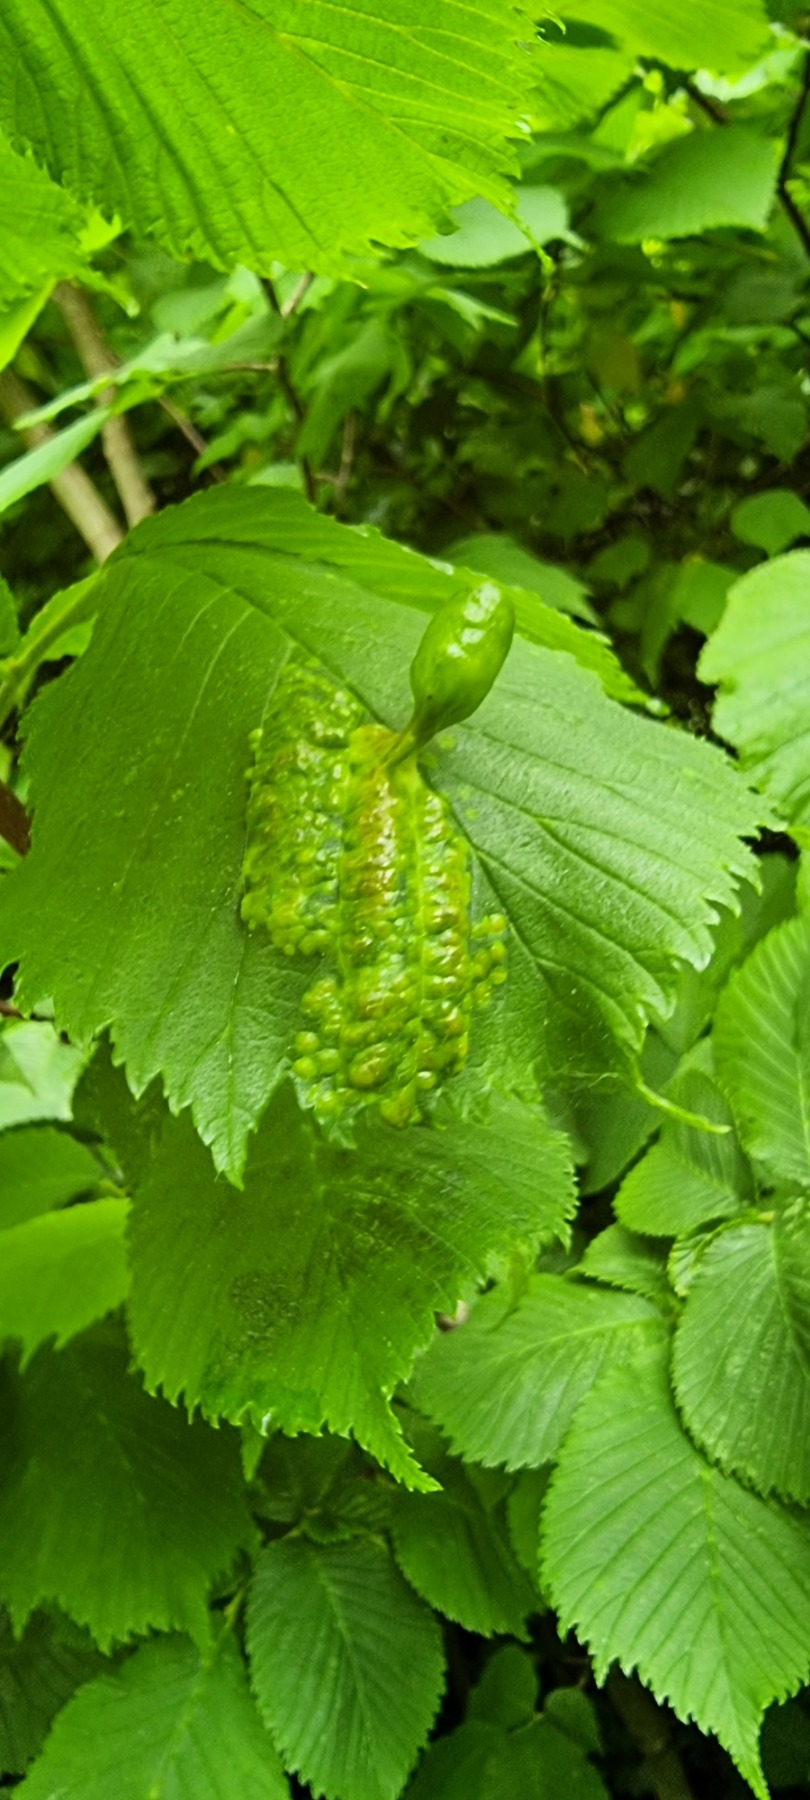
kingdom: Animalia
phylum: Arthropoda
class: Insecta
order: Hemiptera
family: Aphididae
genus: Tetraneura
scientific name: Tetraneura ulmi
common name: Elmegallelus
